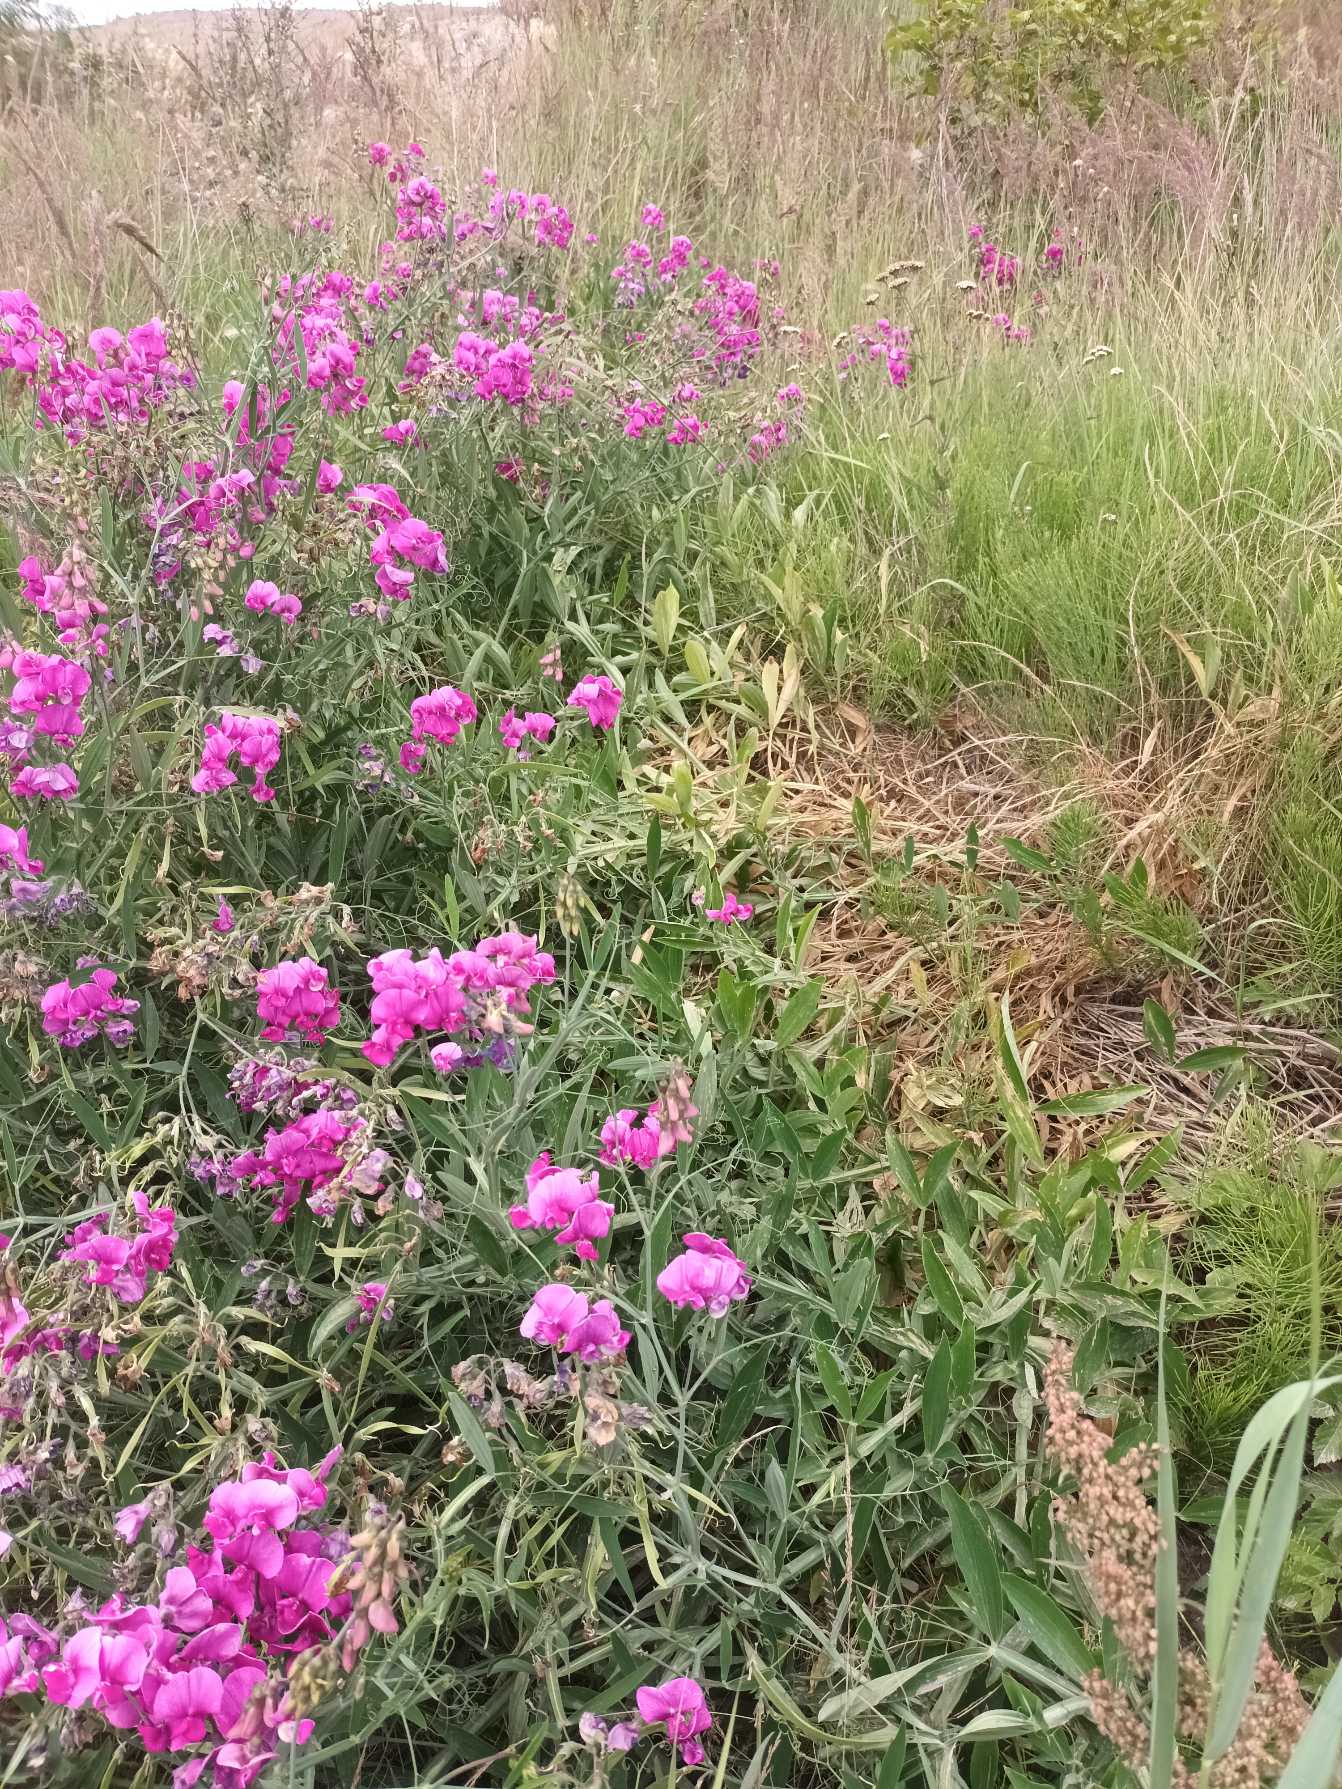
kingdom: Plantae
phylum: Tracheophyta
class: Magnoliopsida
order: Fabales
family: Fabaceae
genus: Lathyrus
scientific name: Lathyrus latifolius
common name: Flerårig ærteblomst
